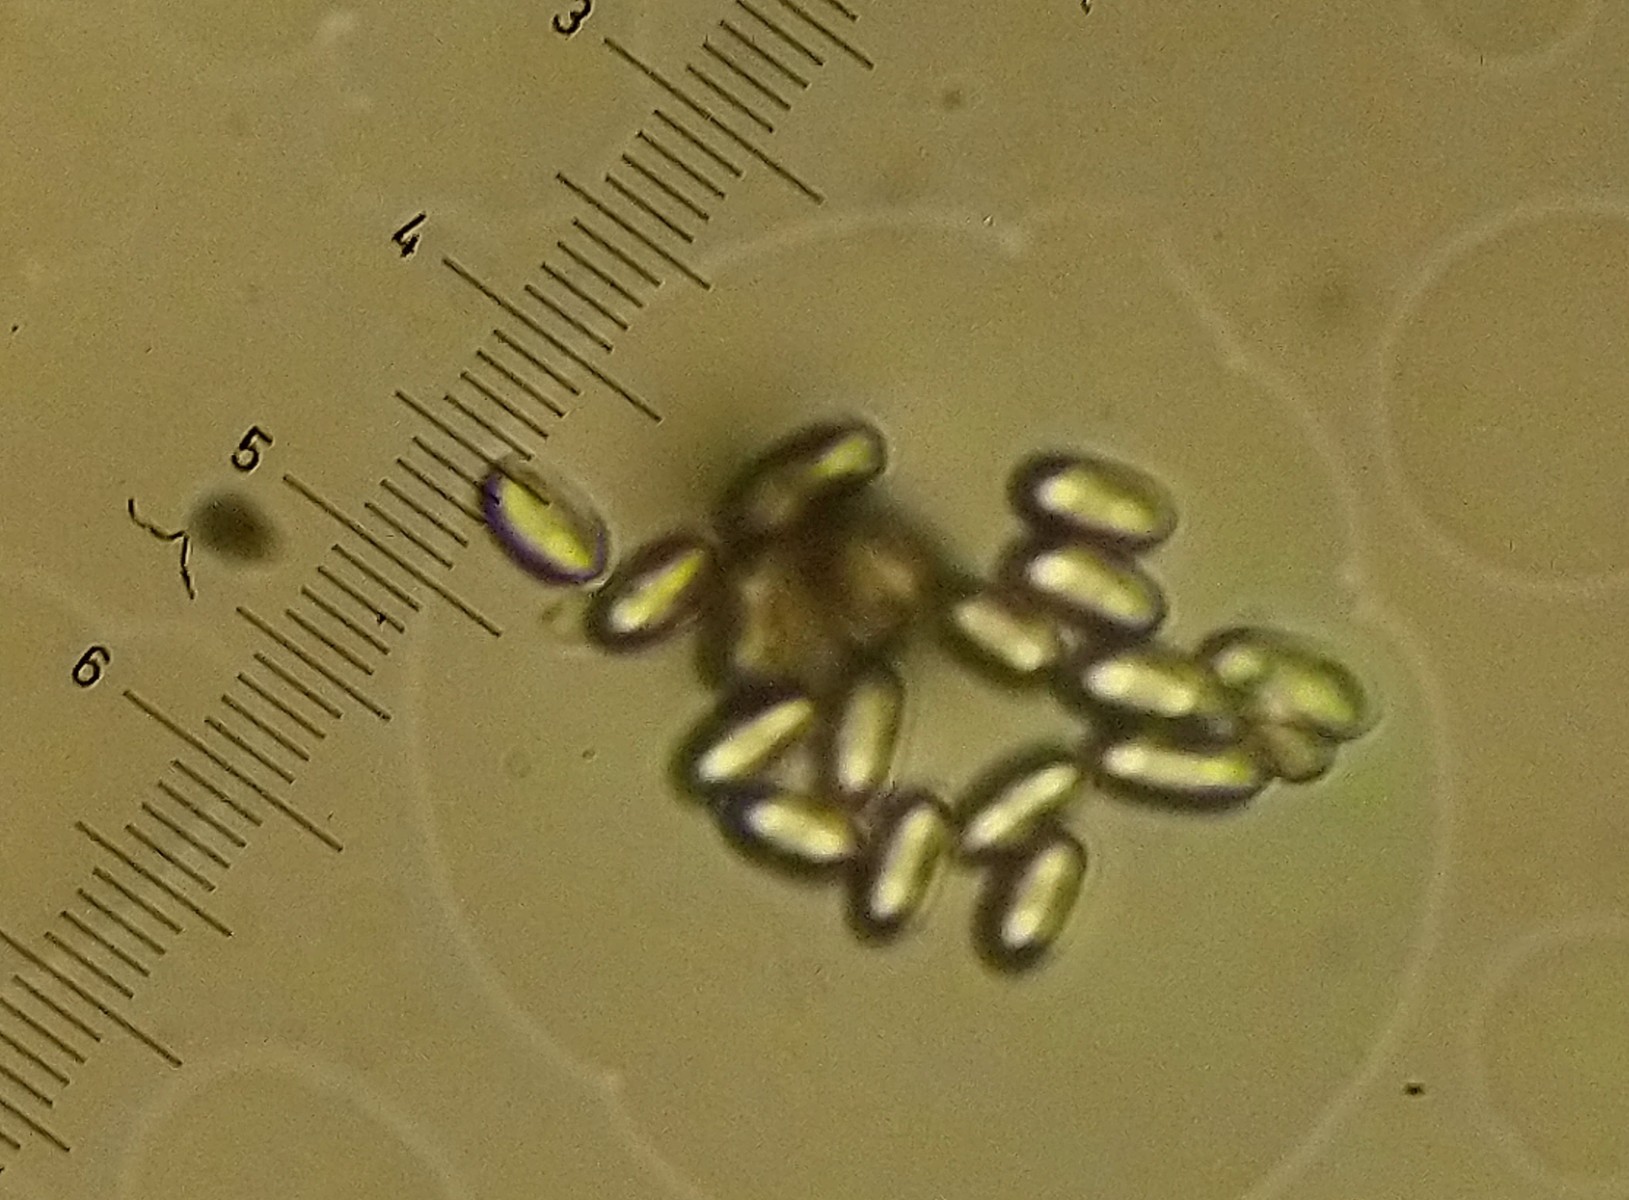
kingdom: Fungi
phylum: Ascomycota
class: Eurotiomycetes
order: Onygenales
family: Onygenaceae
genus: Onygena
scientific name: Onygena corvina
